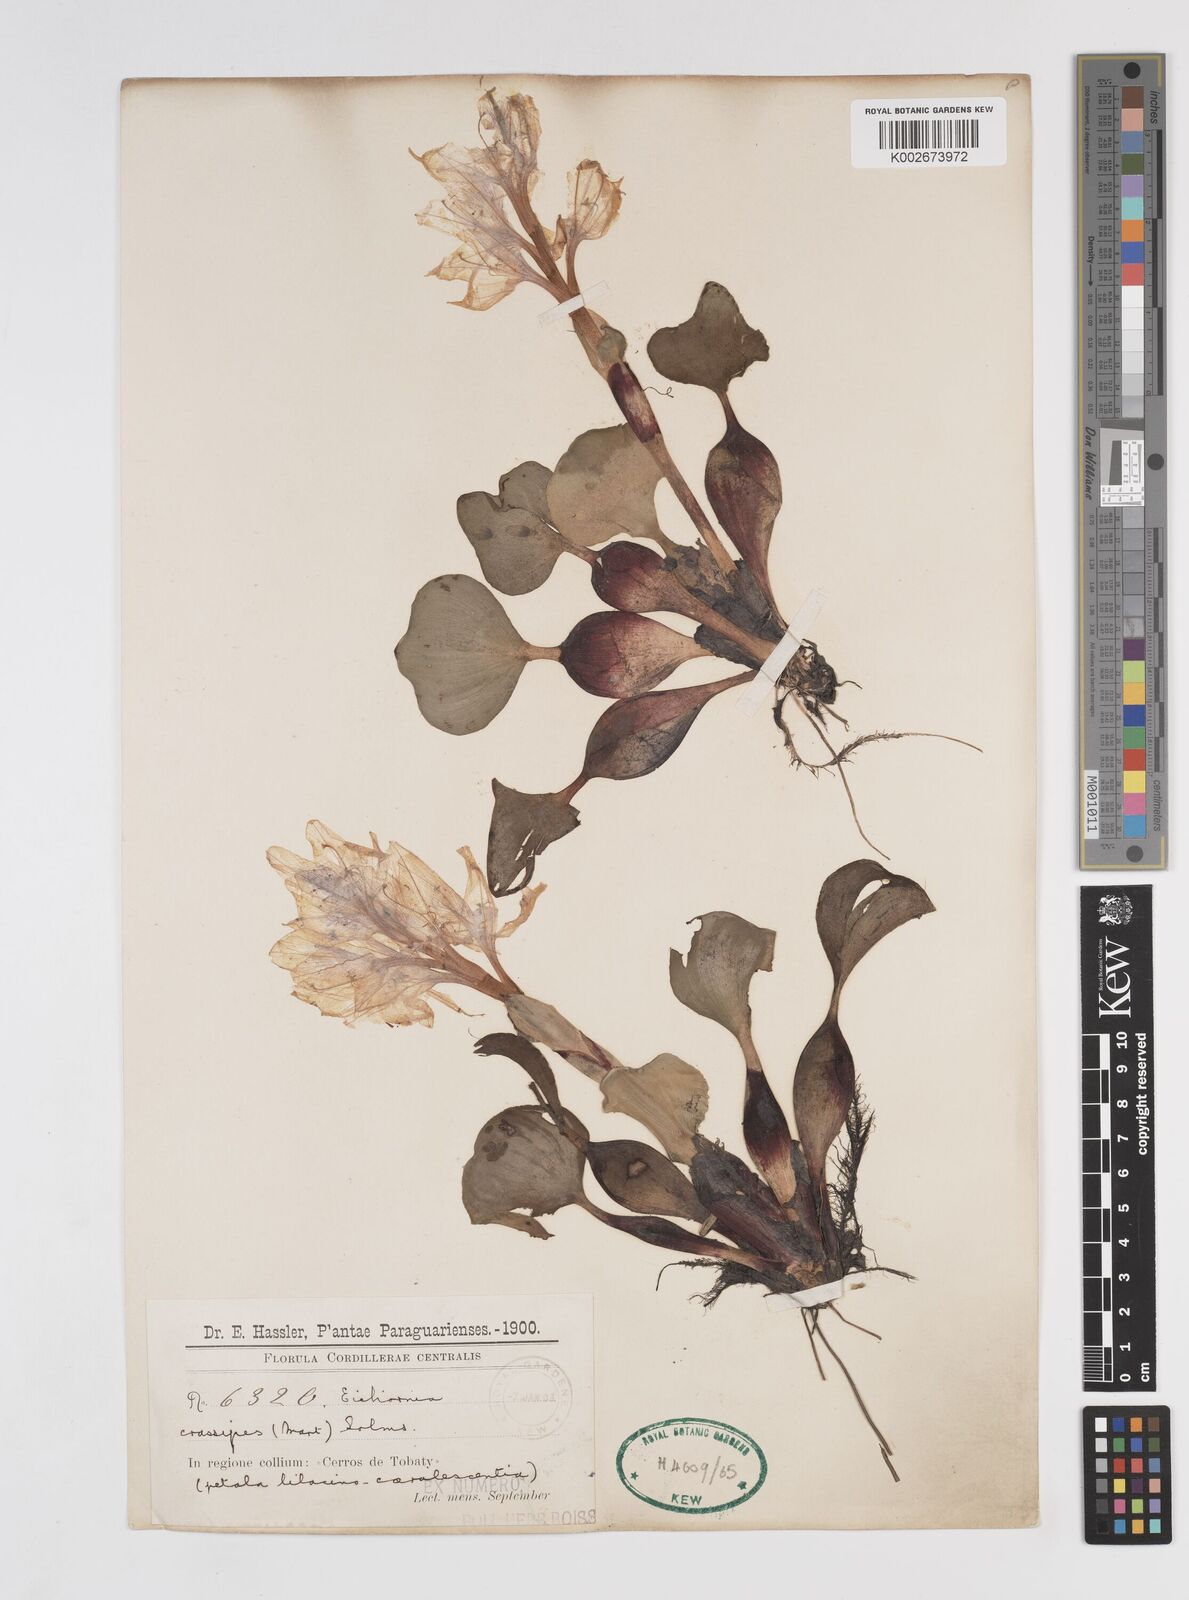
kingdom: Plantae
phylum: Tracheophyta
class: Liliopsida
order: Commelinales
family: Pontederiaceae
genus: Pontederia
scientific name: Pontederia crassipes
